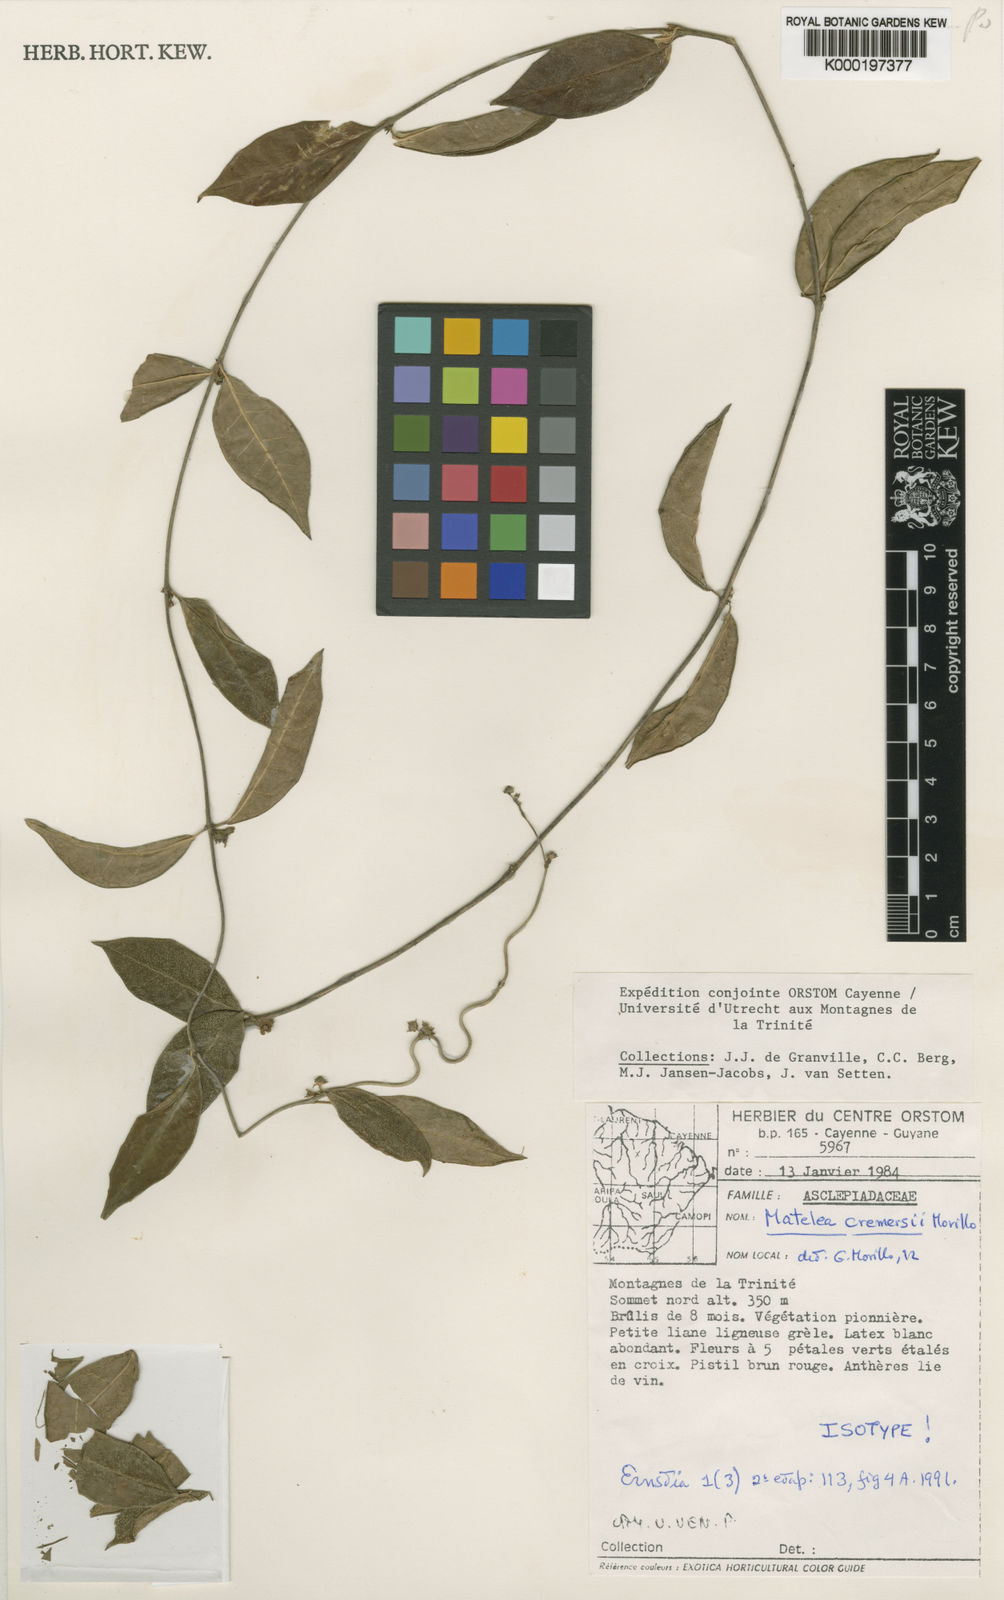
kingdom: Plantae
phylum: Tracheophyta
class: Magnoliopsida
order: Gentianales
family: Apocynaceae
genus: Matelea
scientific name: Matelea cremersii
